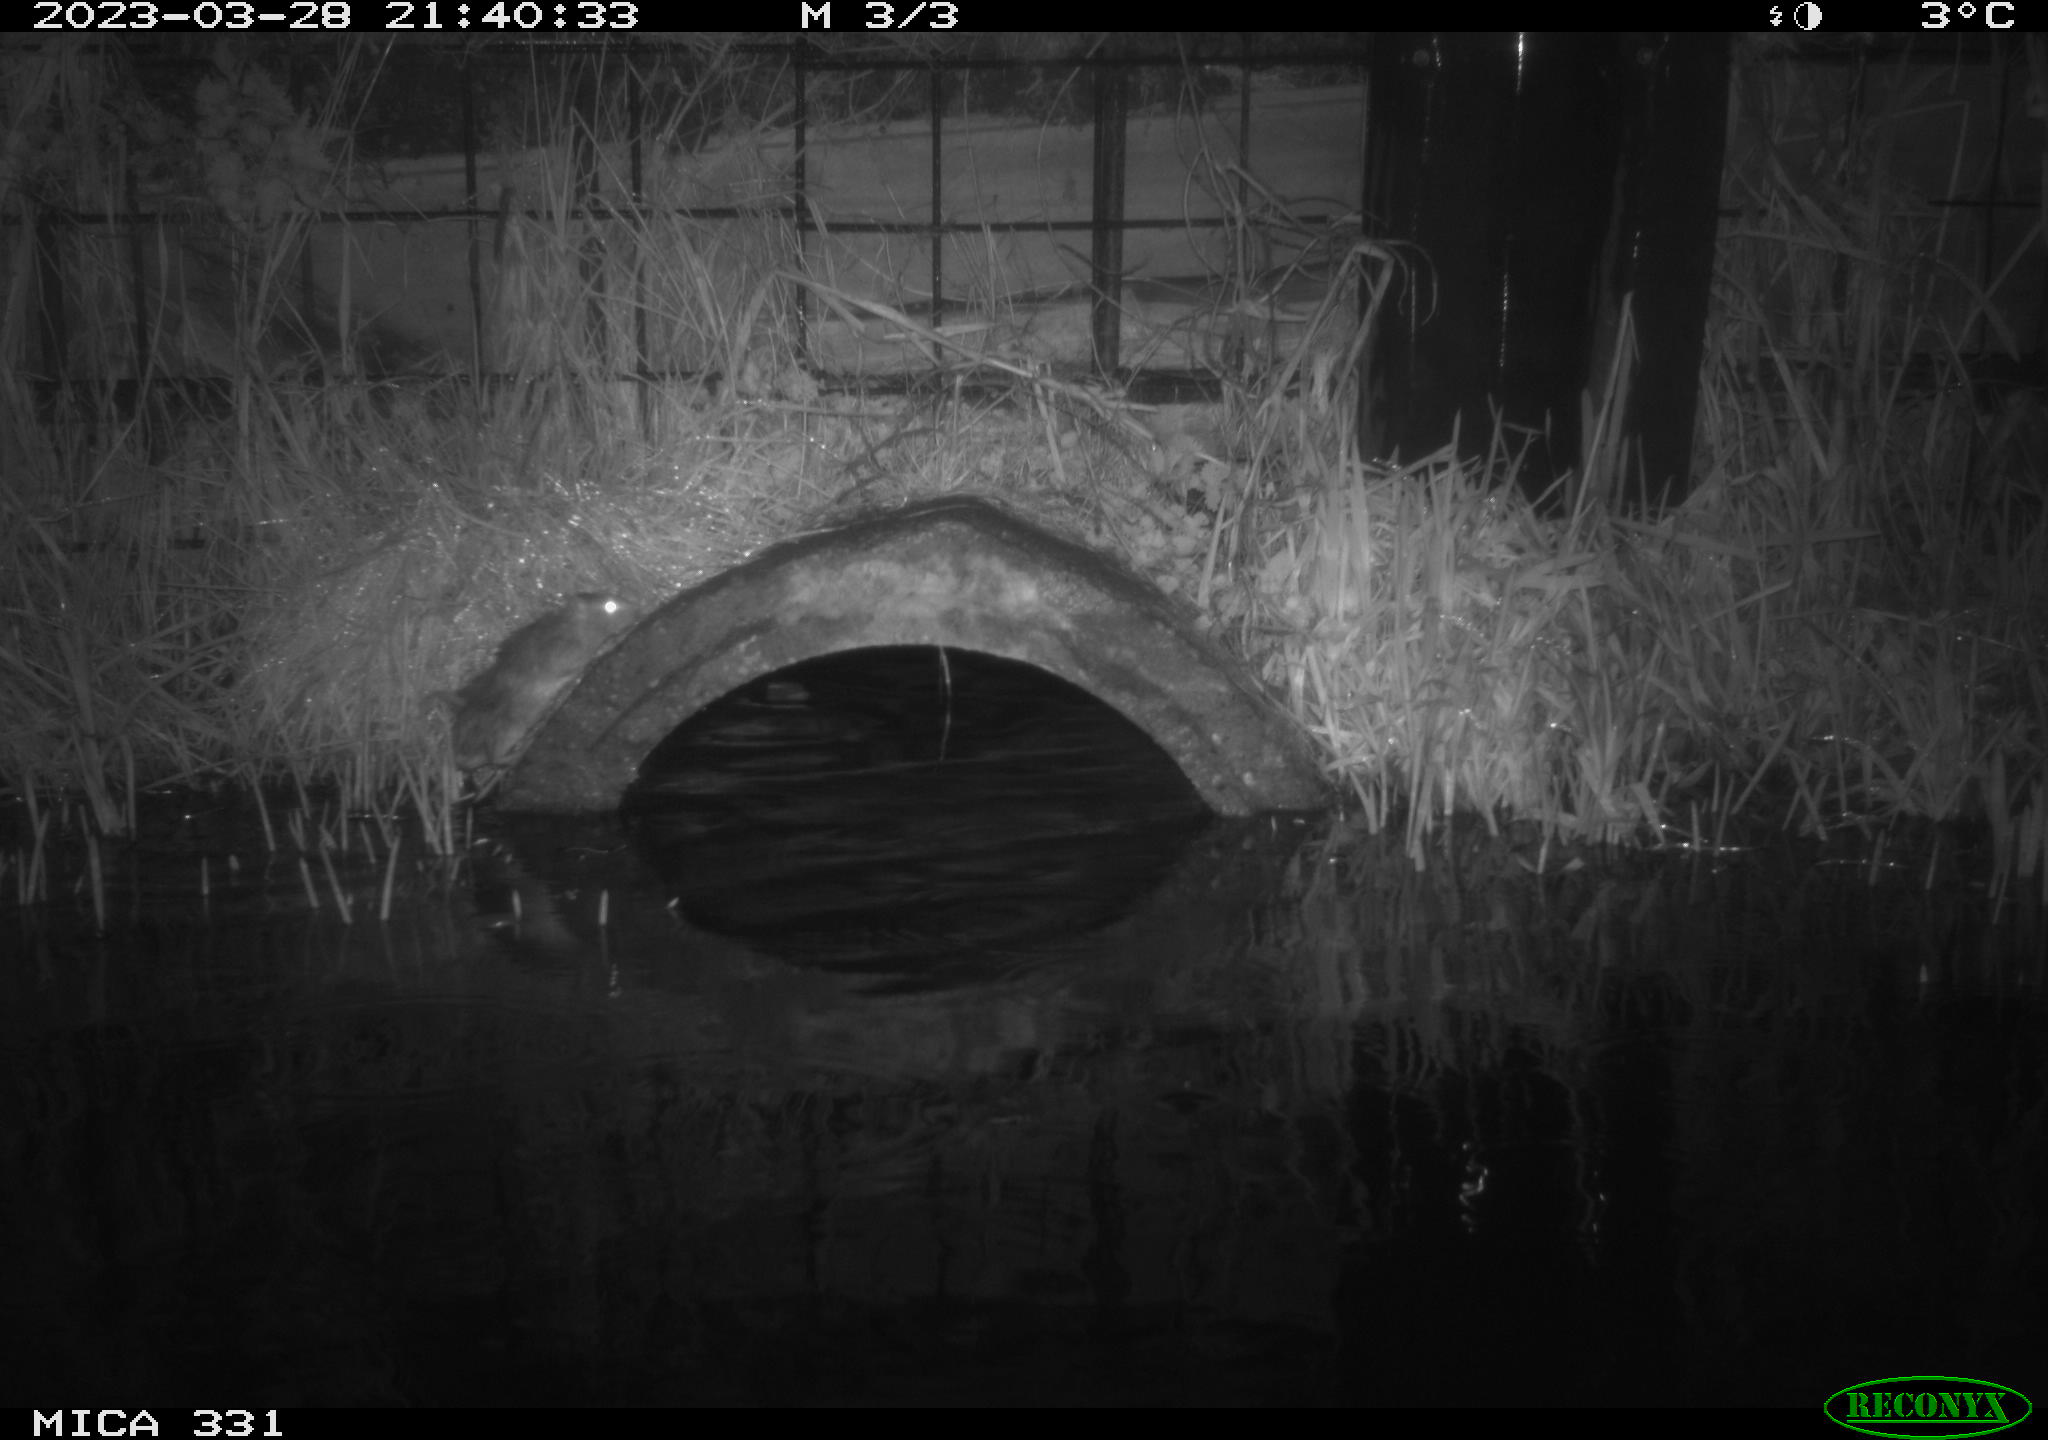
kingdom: Animalia
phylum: Chordata
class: Mammalia
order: Rodentia
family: Muridae
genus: Rattus
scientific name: Rattus norvegicus
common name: Brown rat
